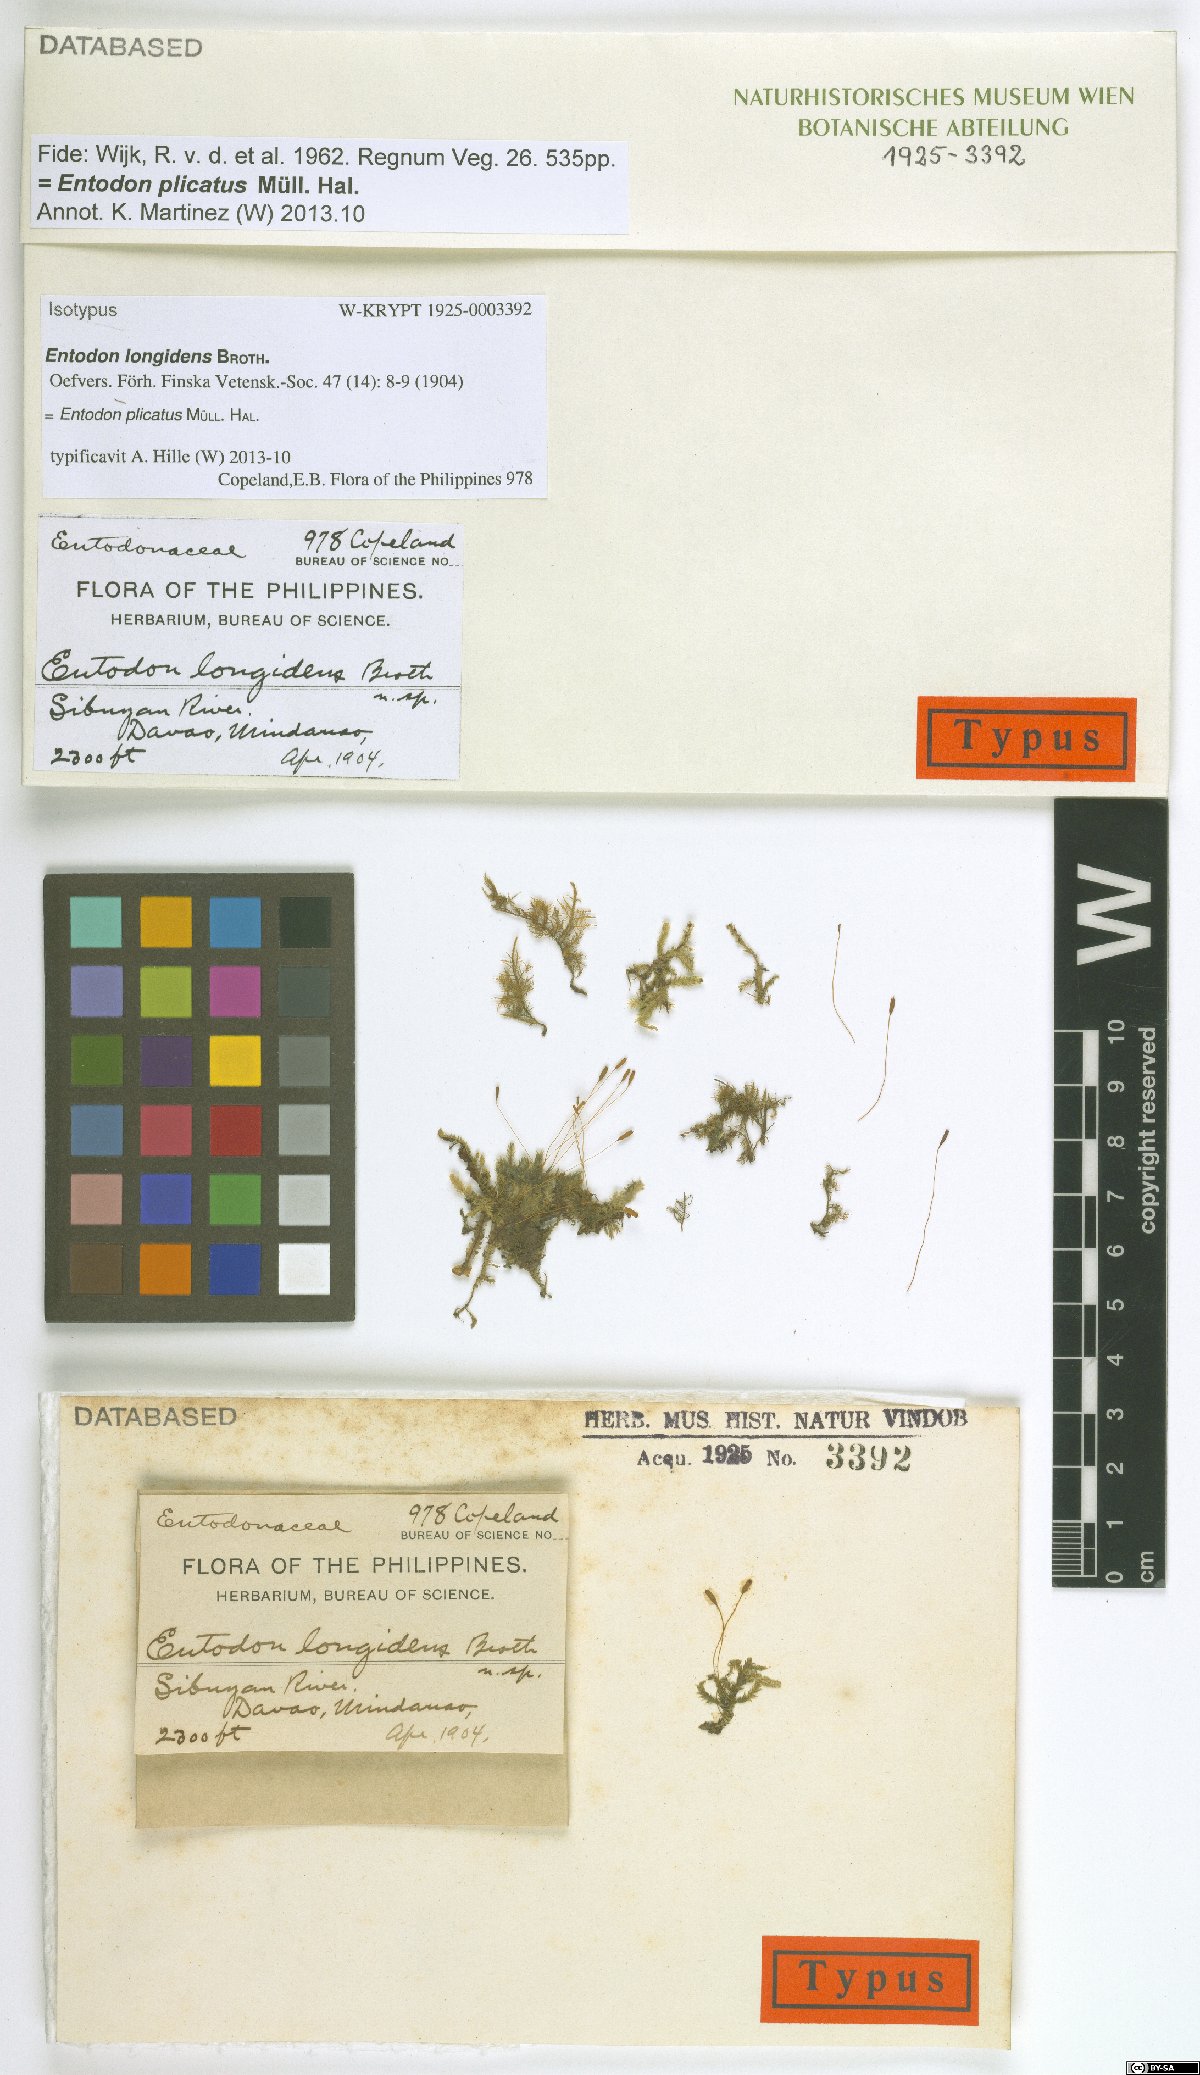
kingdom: Plantae
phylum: Bryophyta
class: Bryopsida
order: Hypnales
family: Entodontaceae
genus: Entodon
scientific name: Entodon plicatus
